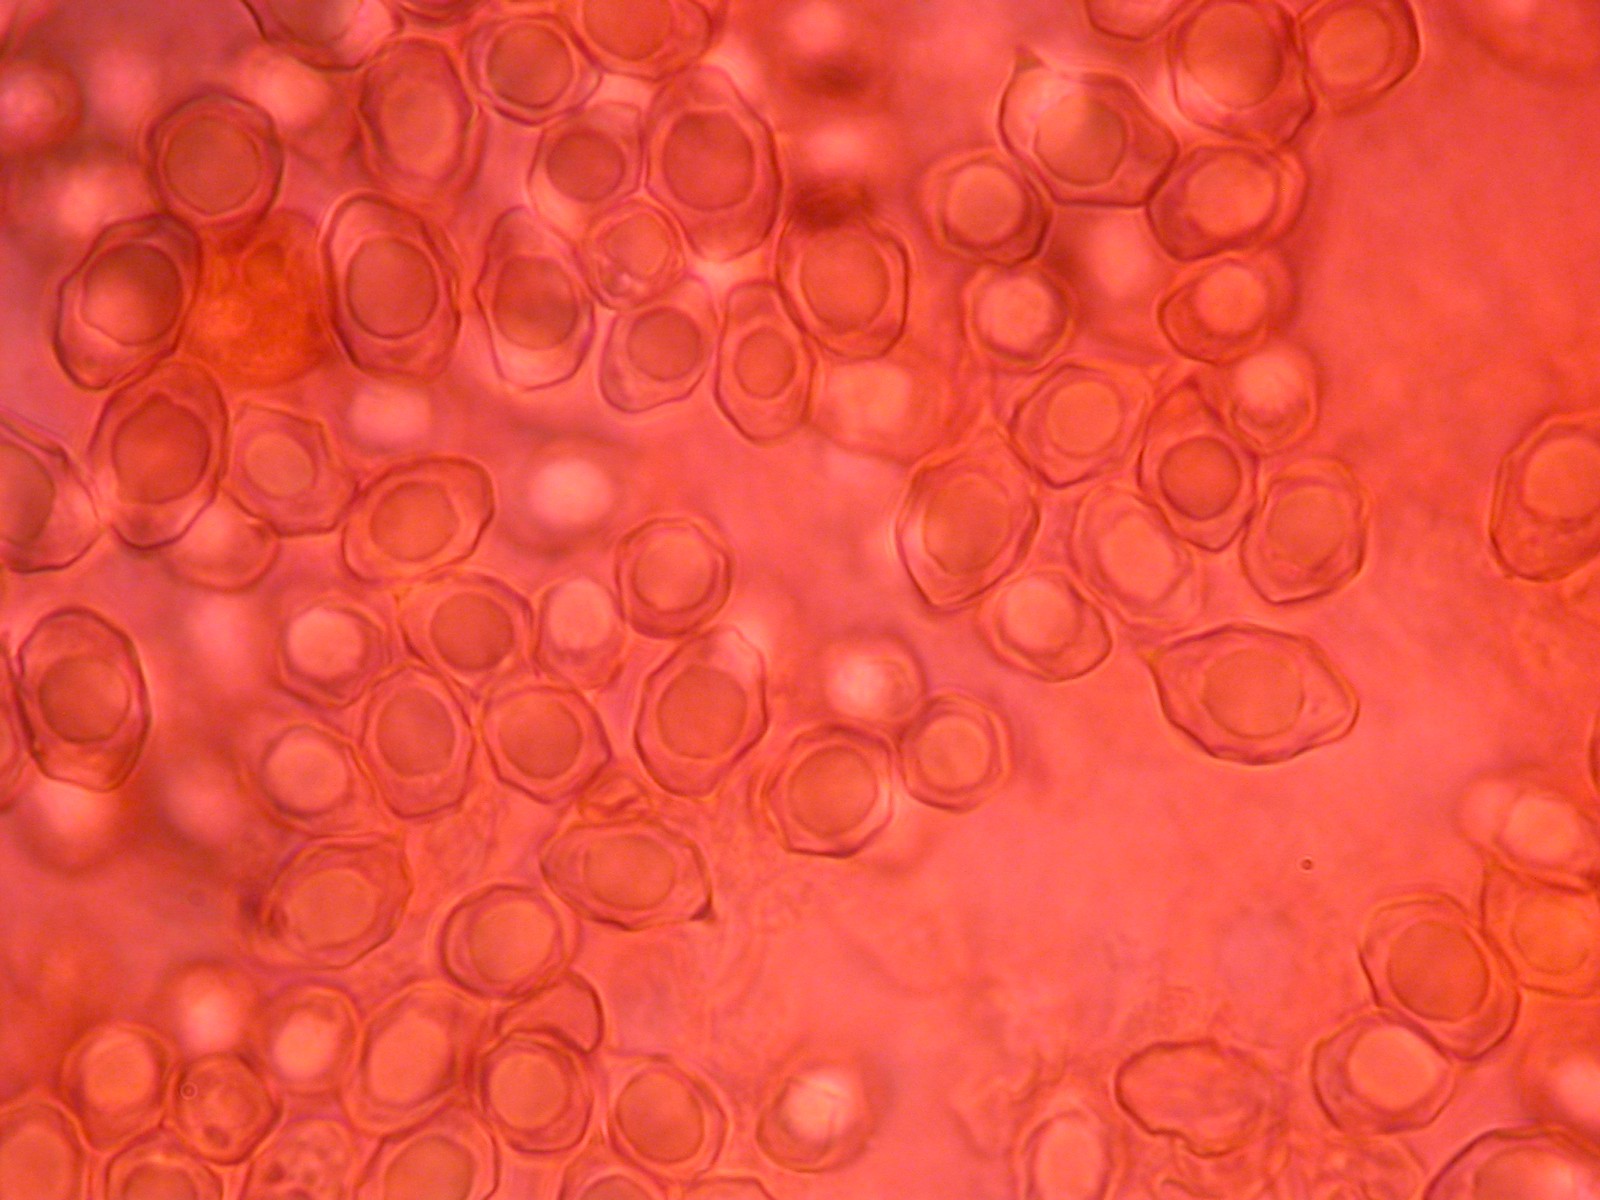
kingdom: Fungi
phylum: Basidiomycota
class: Agaricomycetes
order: Agaricales
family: Entolomataceae
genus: Entoloma
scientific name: Entoloma placidum
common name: bøge-rødblad
